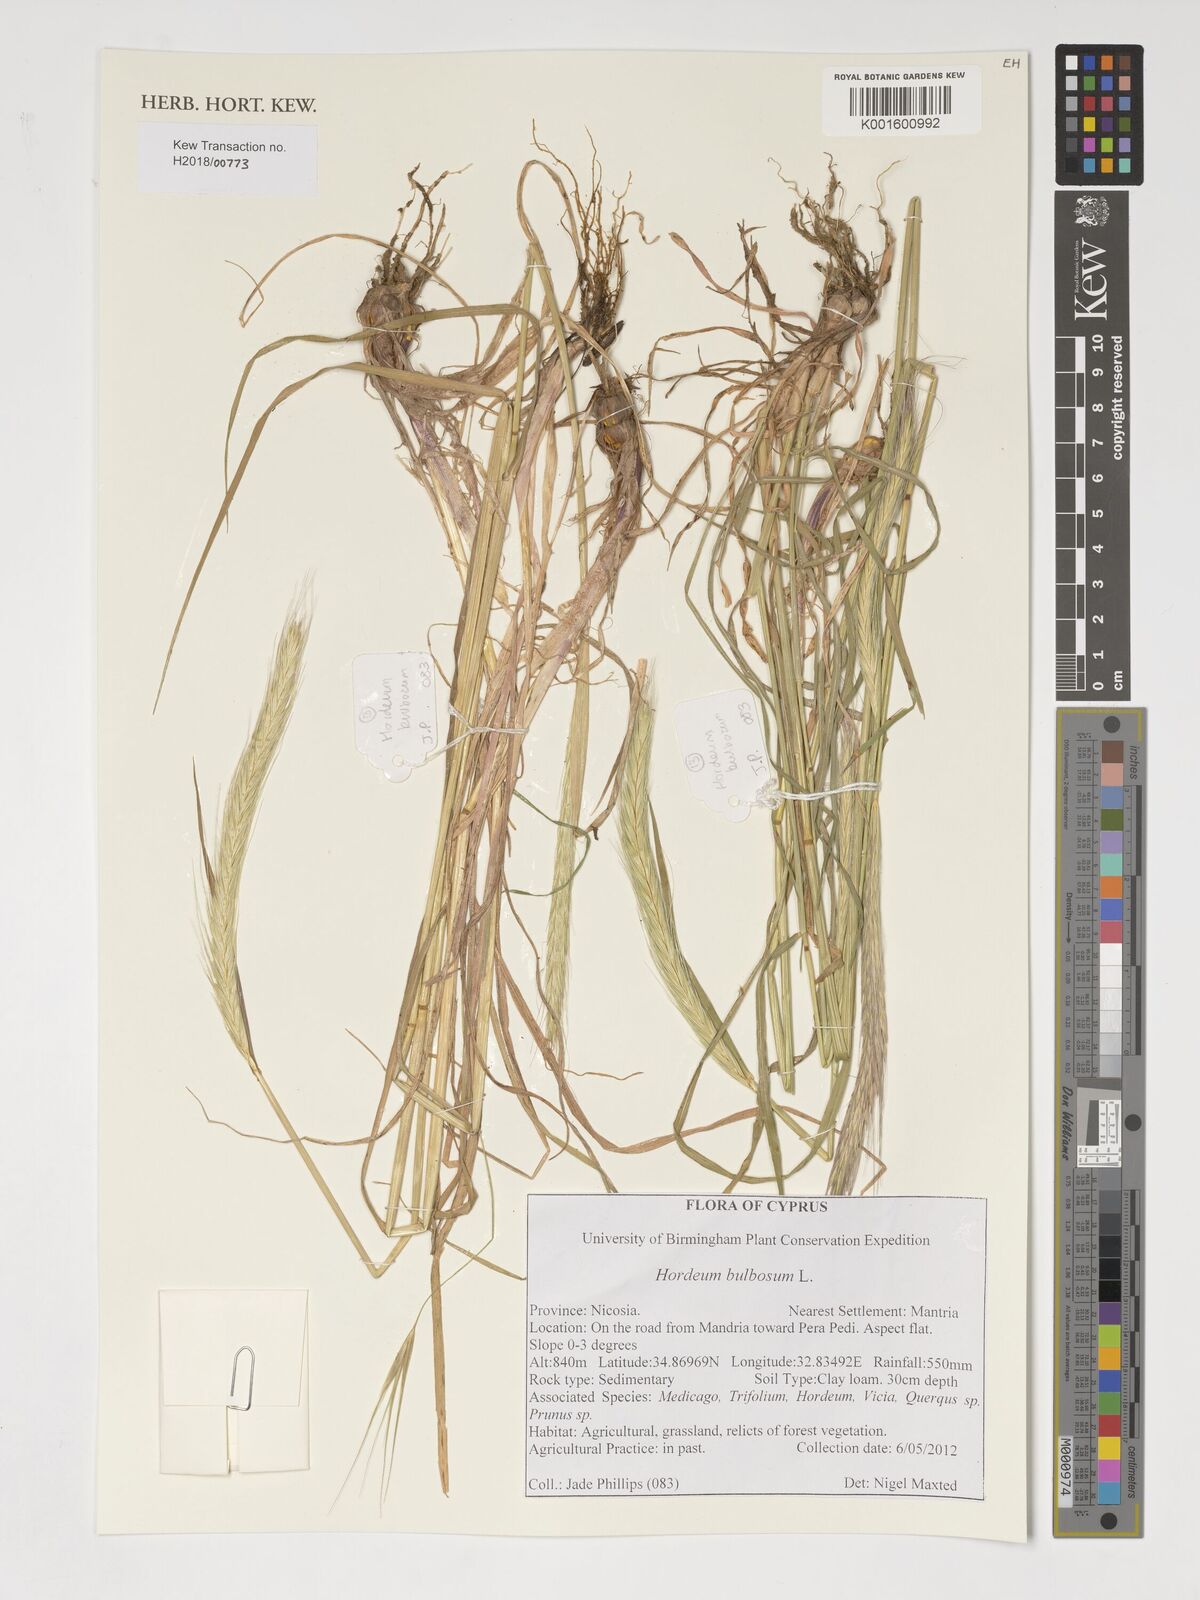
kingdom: Plantae
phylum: Tracheophyta
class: Liliopsida
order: Poales
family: Poaceae
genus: Hordeum
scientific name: Hordeum bulbosum
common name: Bulbous barley
